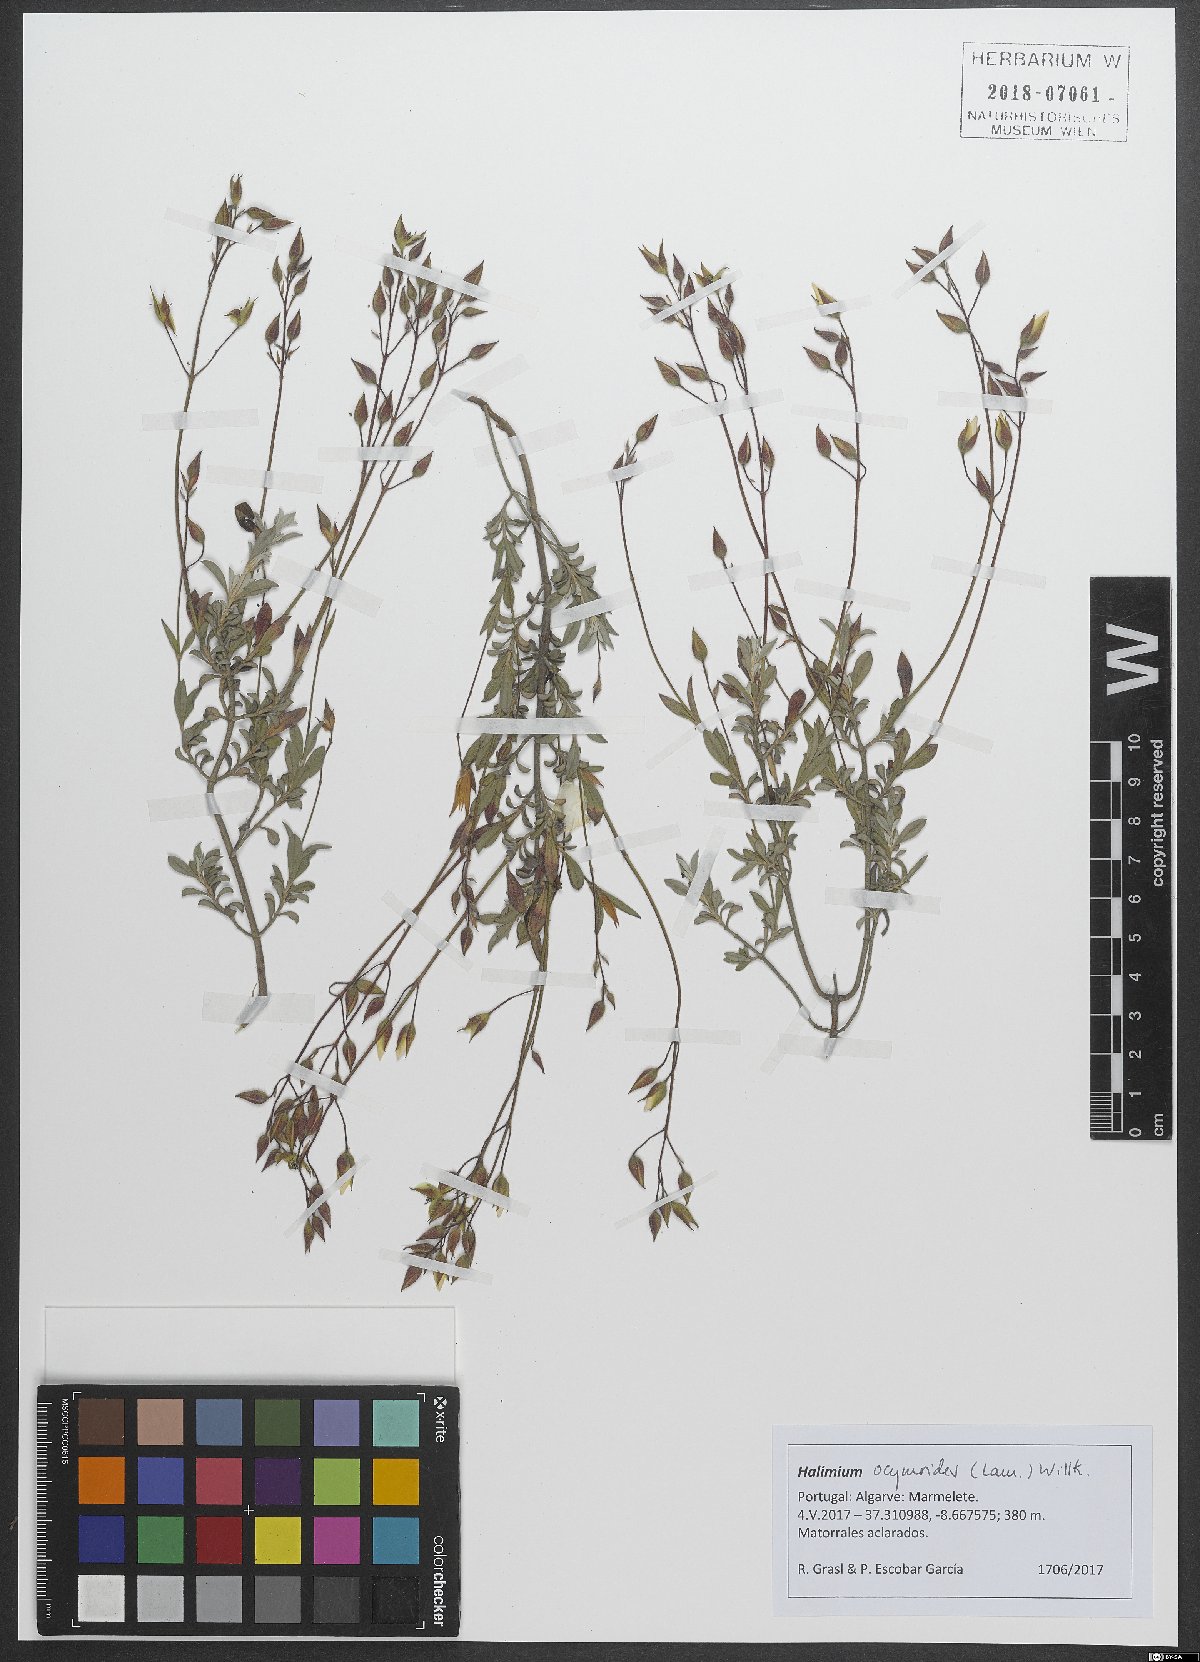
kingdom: Plantae
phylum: Tracheophyta
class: Magnoliopsida
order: Malvales
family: Cistaceae
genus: Halimium
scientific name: Halimium ocymoides
